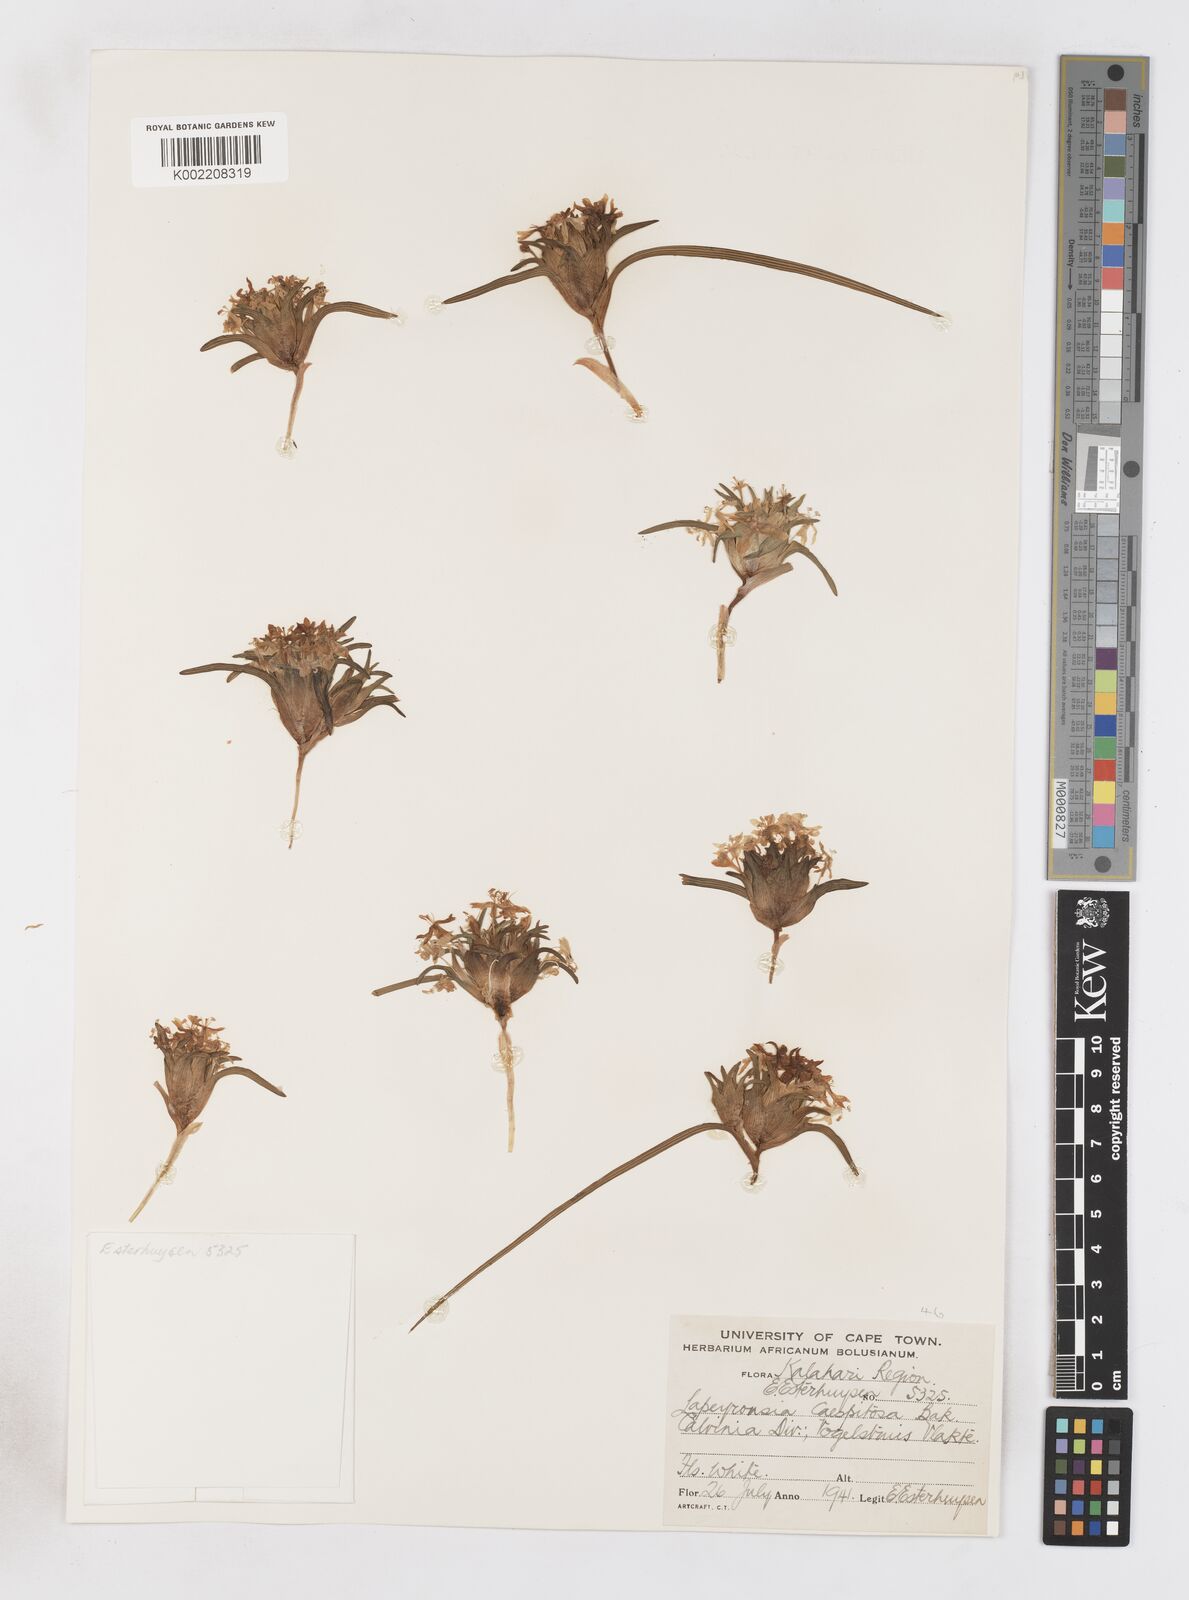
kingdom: Plantae
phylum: Tracheophyta
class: Liliopsida
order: Asparagales
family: Iridaceae
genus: Lapeirousia
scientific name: Lapeirousia plicata
